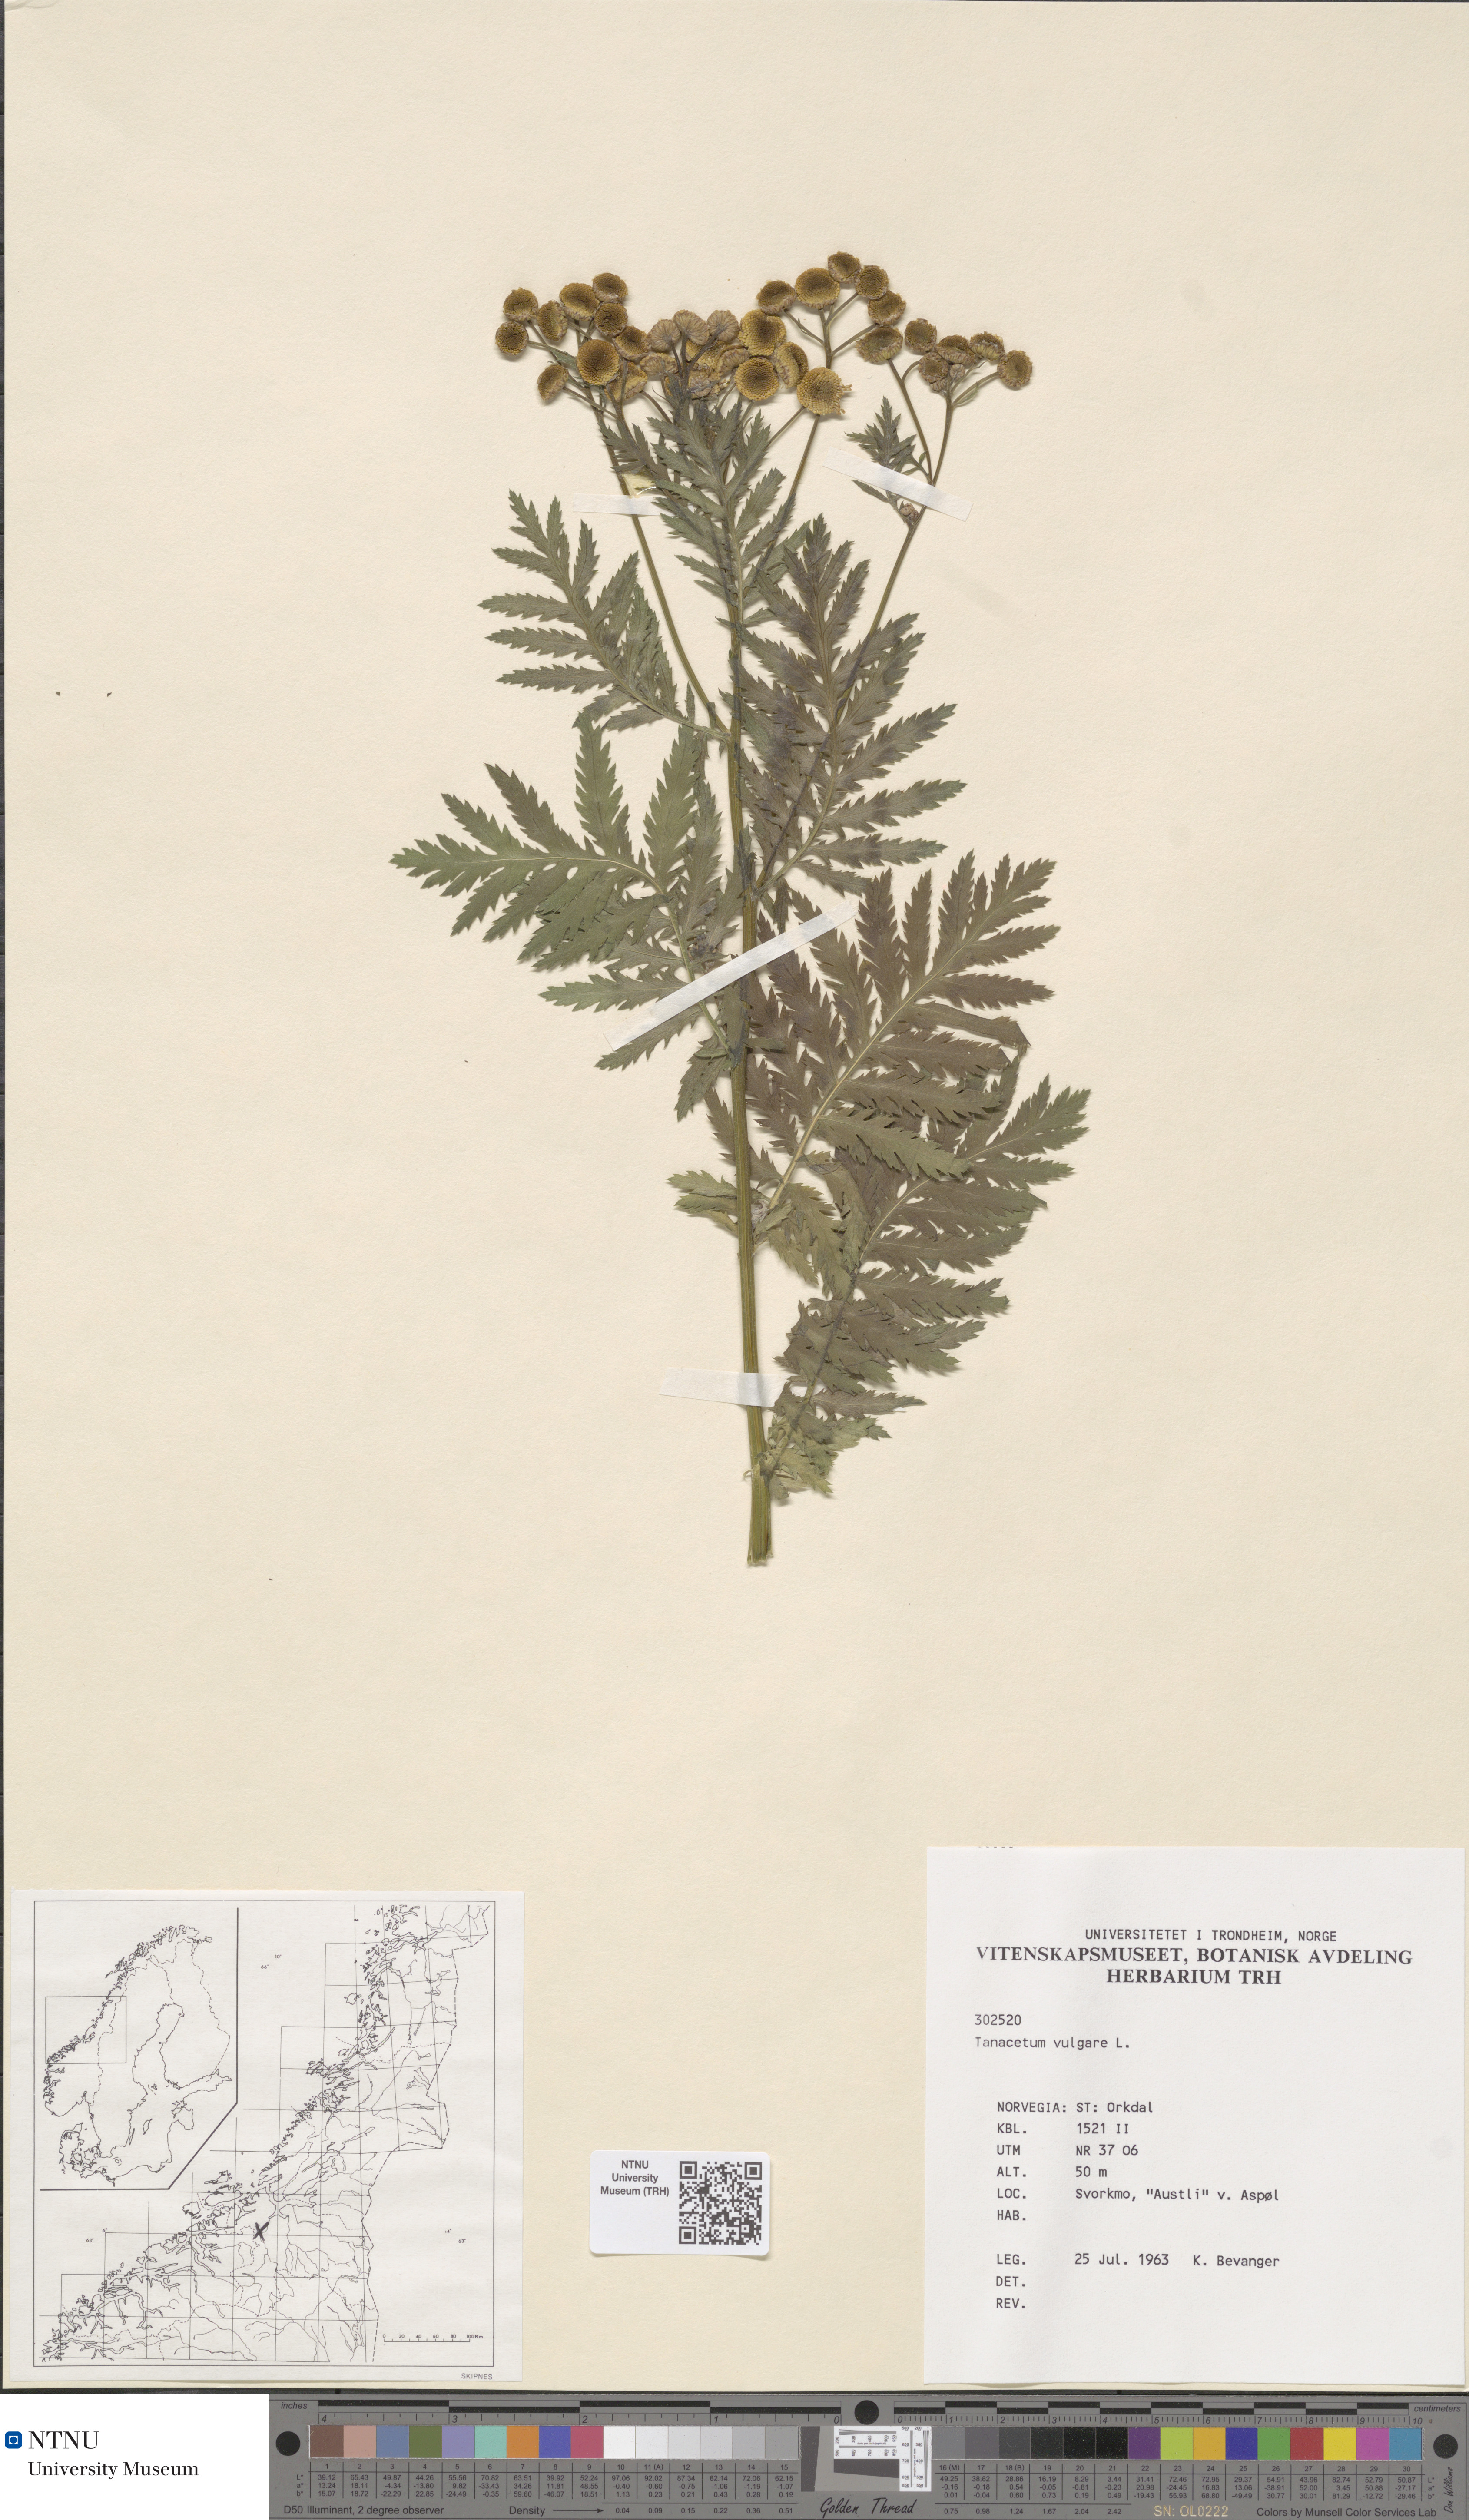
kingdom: Plantae
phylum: Tracheophyta
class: Magnoliopsida
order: Asterales
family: Asteraceae
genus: Tanacetum
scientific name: Tanacetum vulgare
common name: Common tansy
